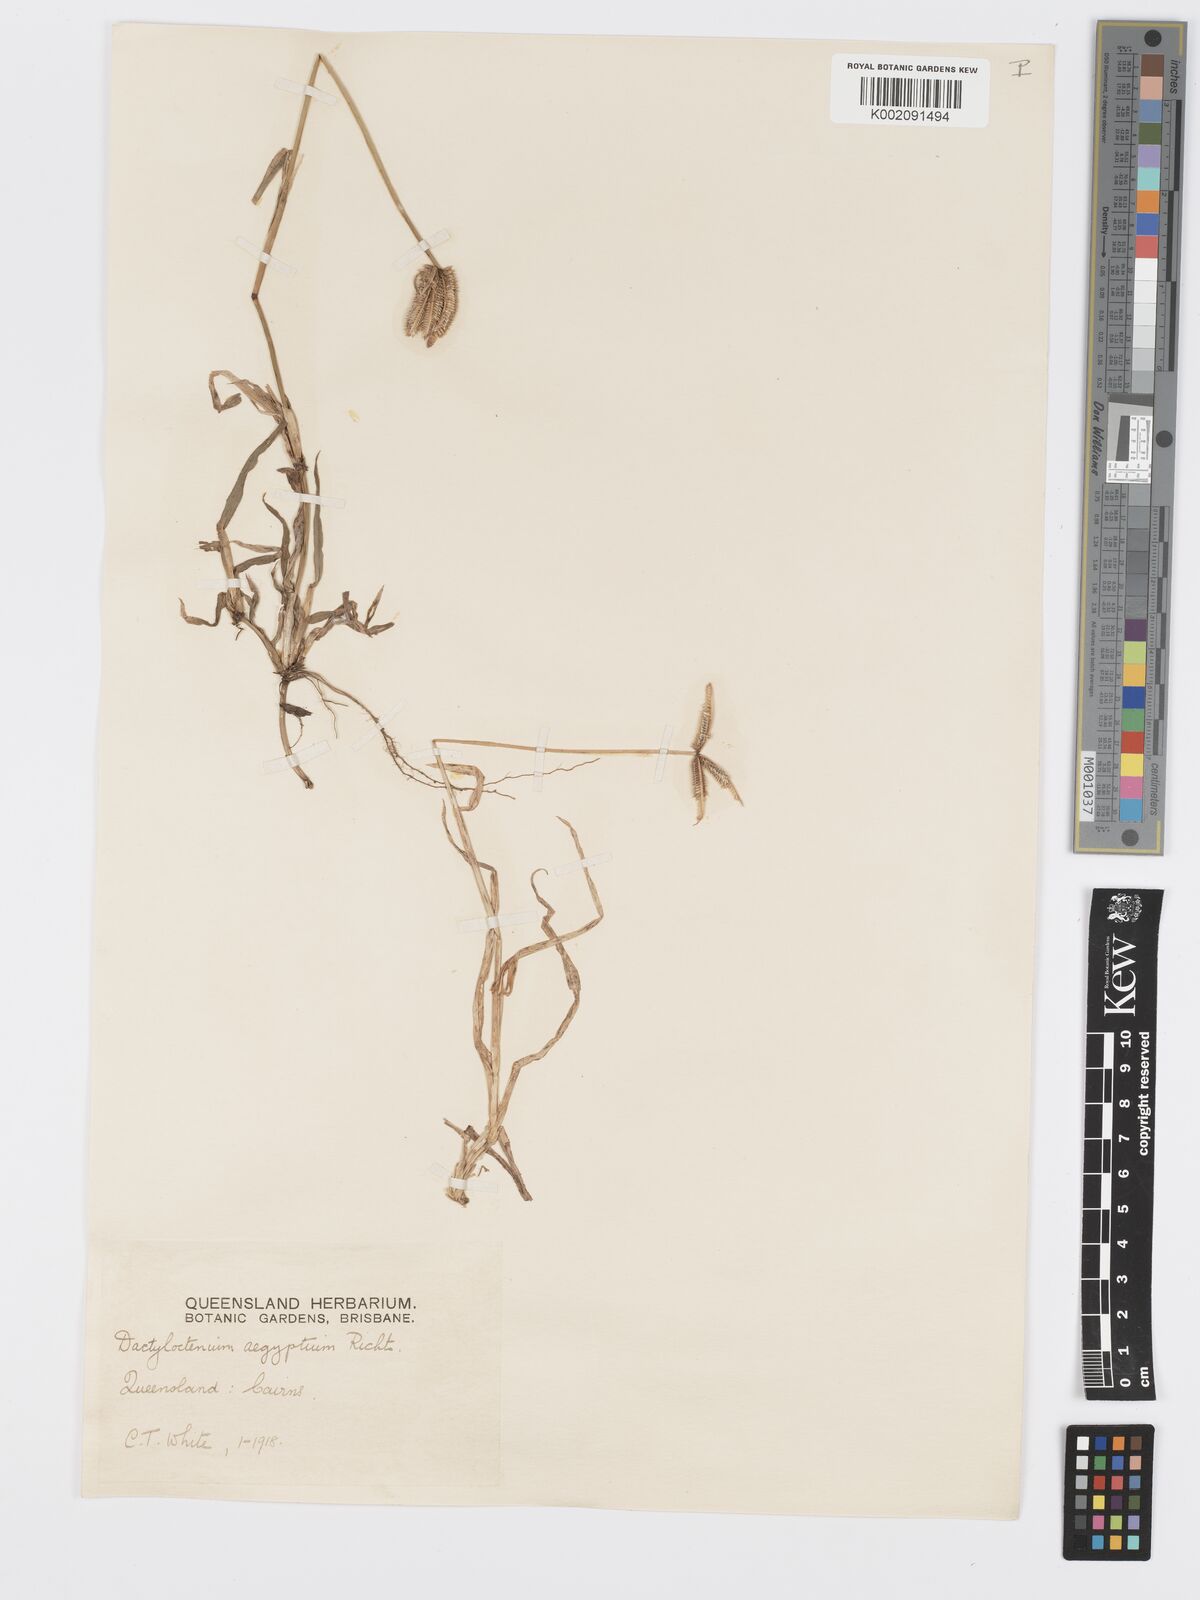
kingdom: Plantae
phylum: Tracheophyta
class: Liliopsida
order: Poales
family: Poaceae
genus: Dactyloctenium
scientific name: Dactyloctenium aegyptium
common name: Egyptian grass
